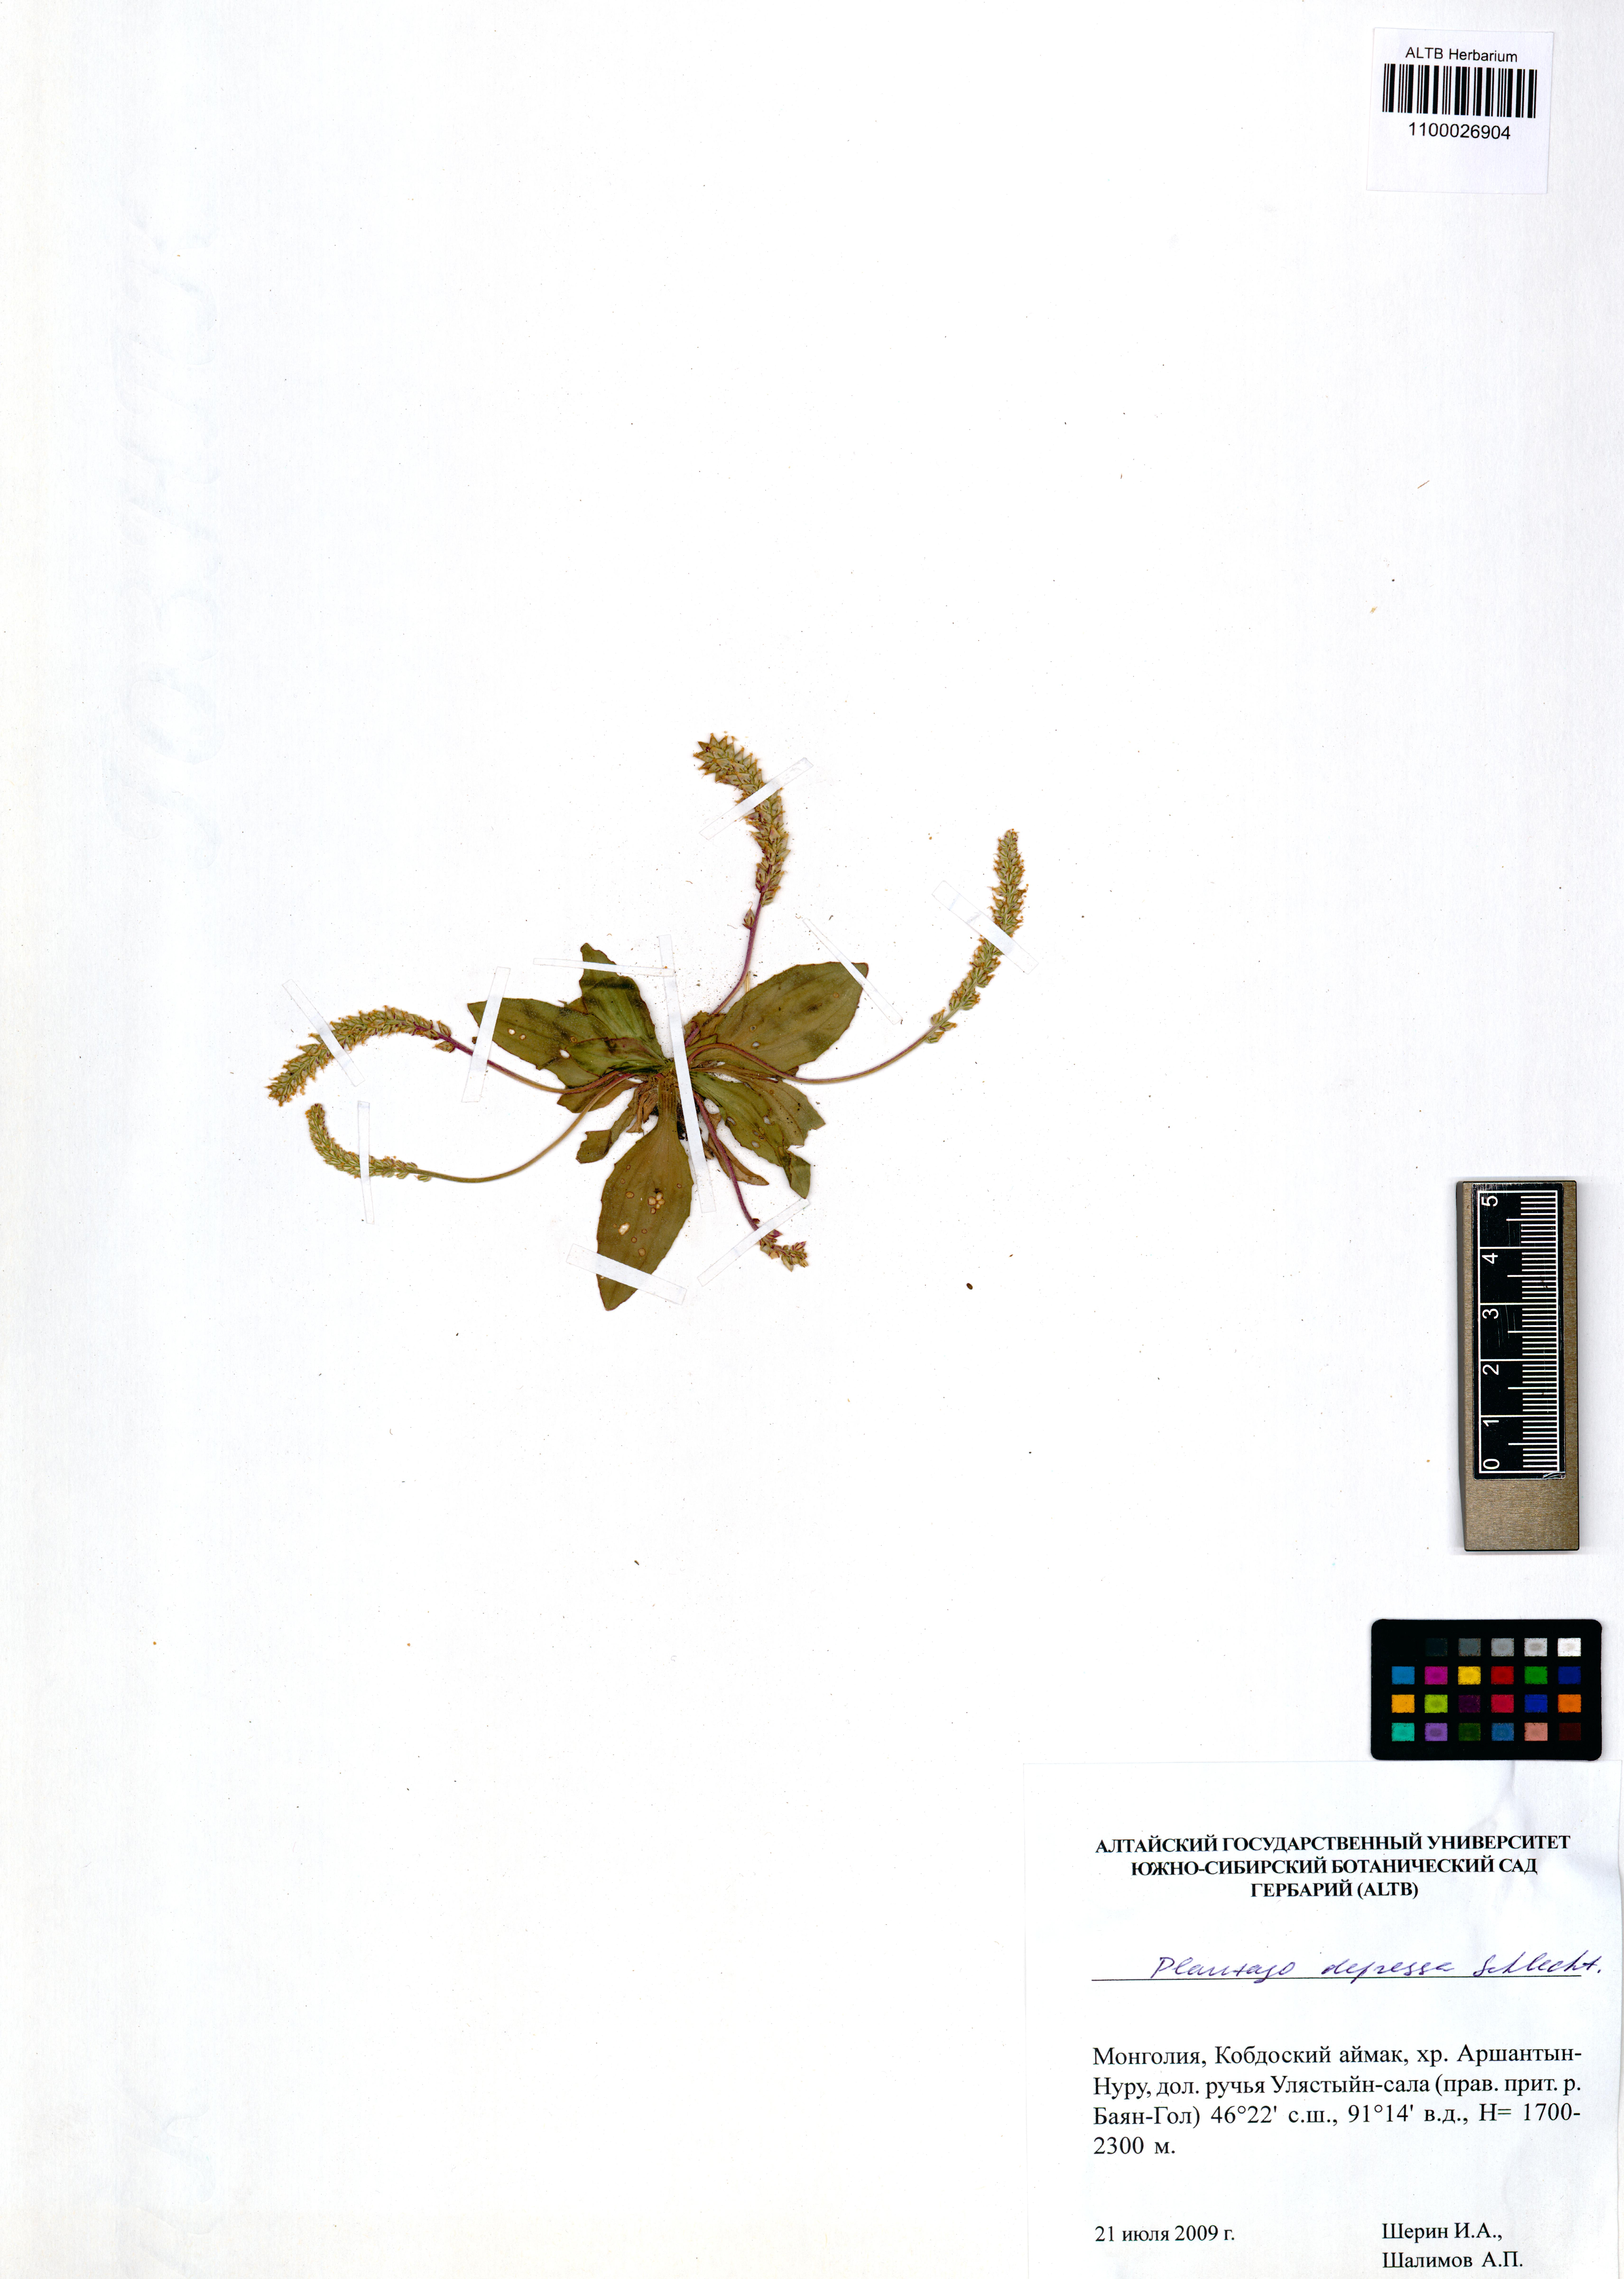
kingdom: Plantae
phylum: Tracheophyta
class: Magnoliopsida
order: Lamiales
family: Plantaginaceae
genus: Plantago
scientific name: Plantago depressa
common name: Depressed plantain
